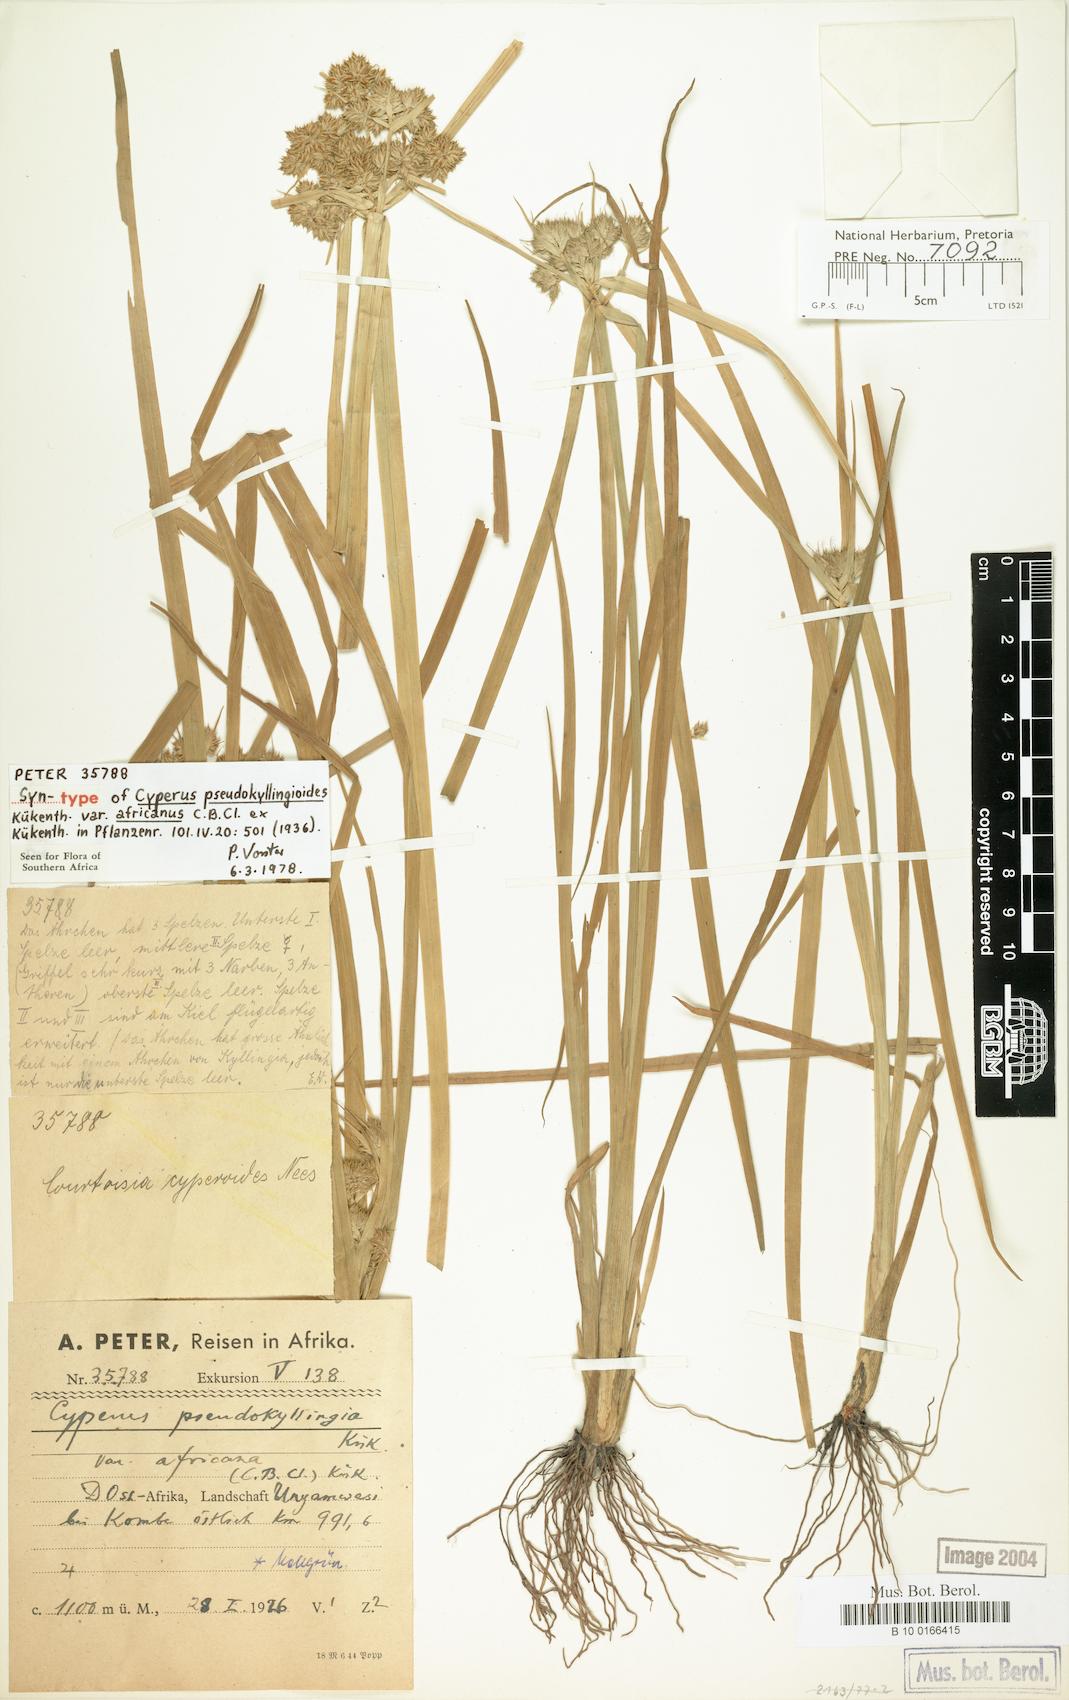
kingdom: Plantae
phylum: Tracheophyta
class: Liliopsida
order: Poales
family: Cyperaceae
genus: Cyperus
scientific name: Cyperus pseudokyllingioides
